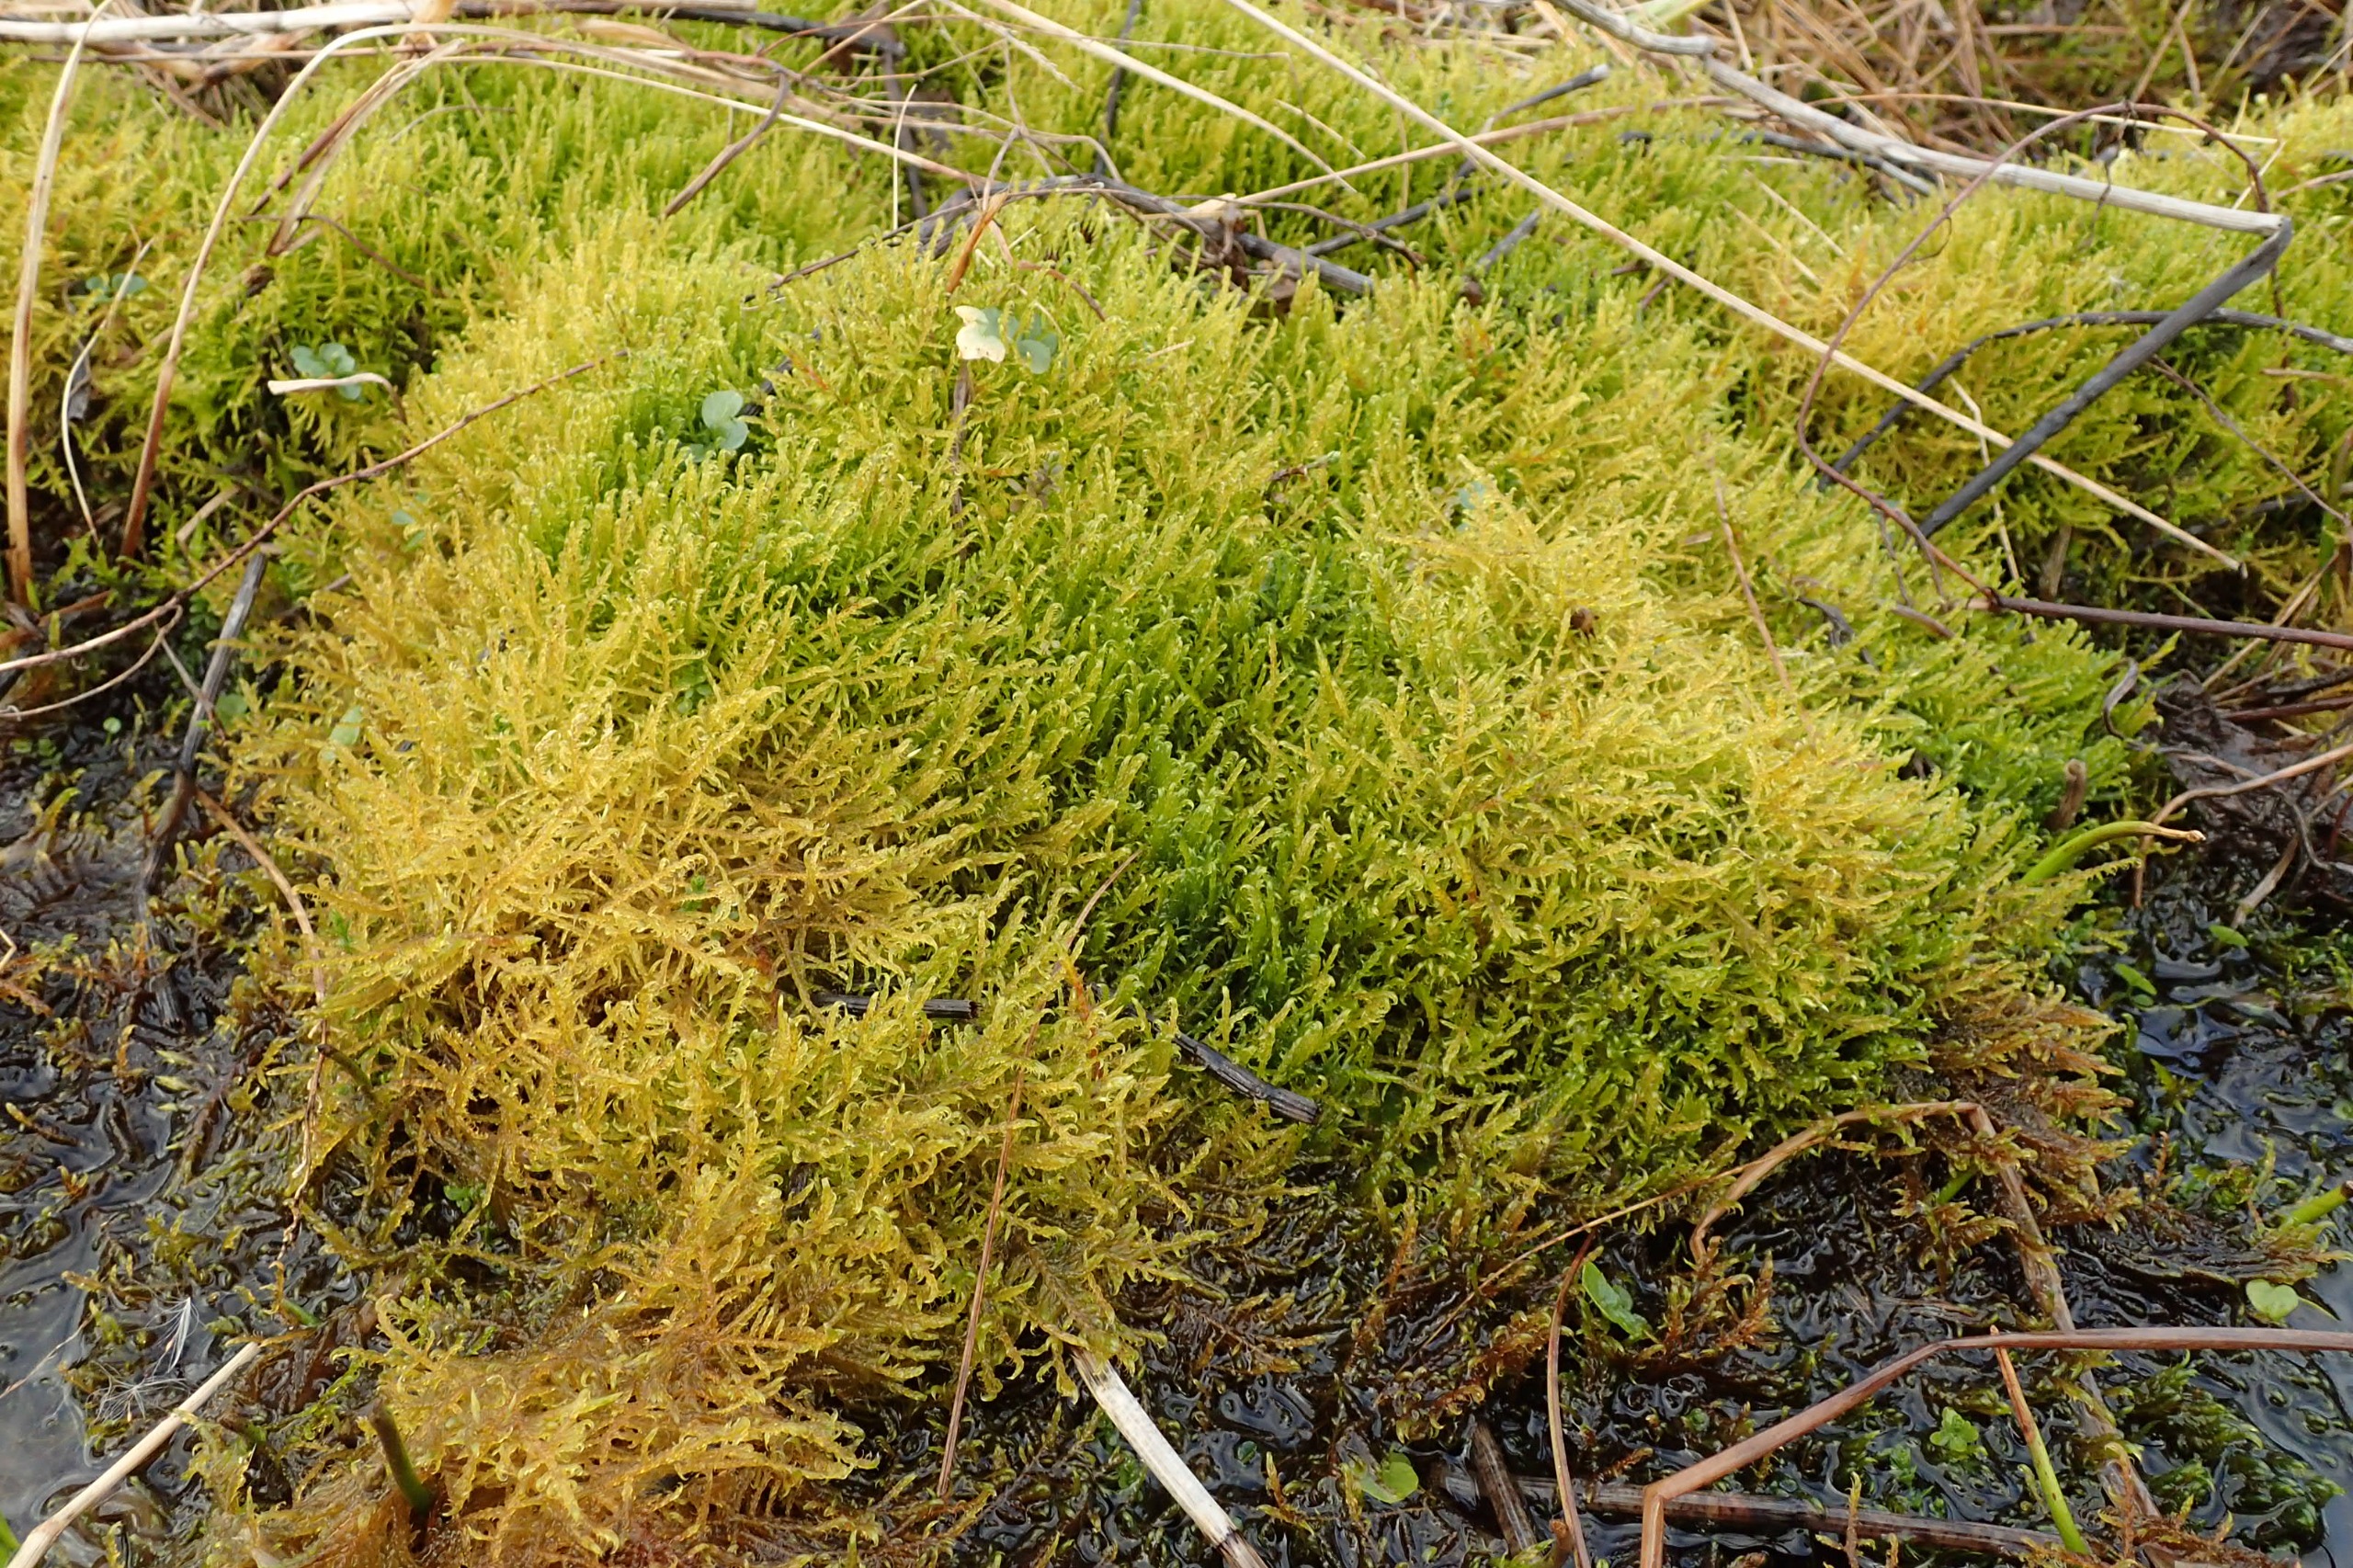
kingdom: Plantae
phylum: Bryophyta
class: Bryopsida
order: Hypnales
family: Amblystegiaceae
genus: Drepanocladus
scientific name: Drepanocladus aduncus
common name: Kær-seglmos
